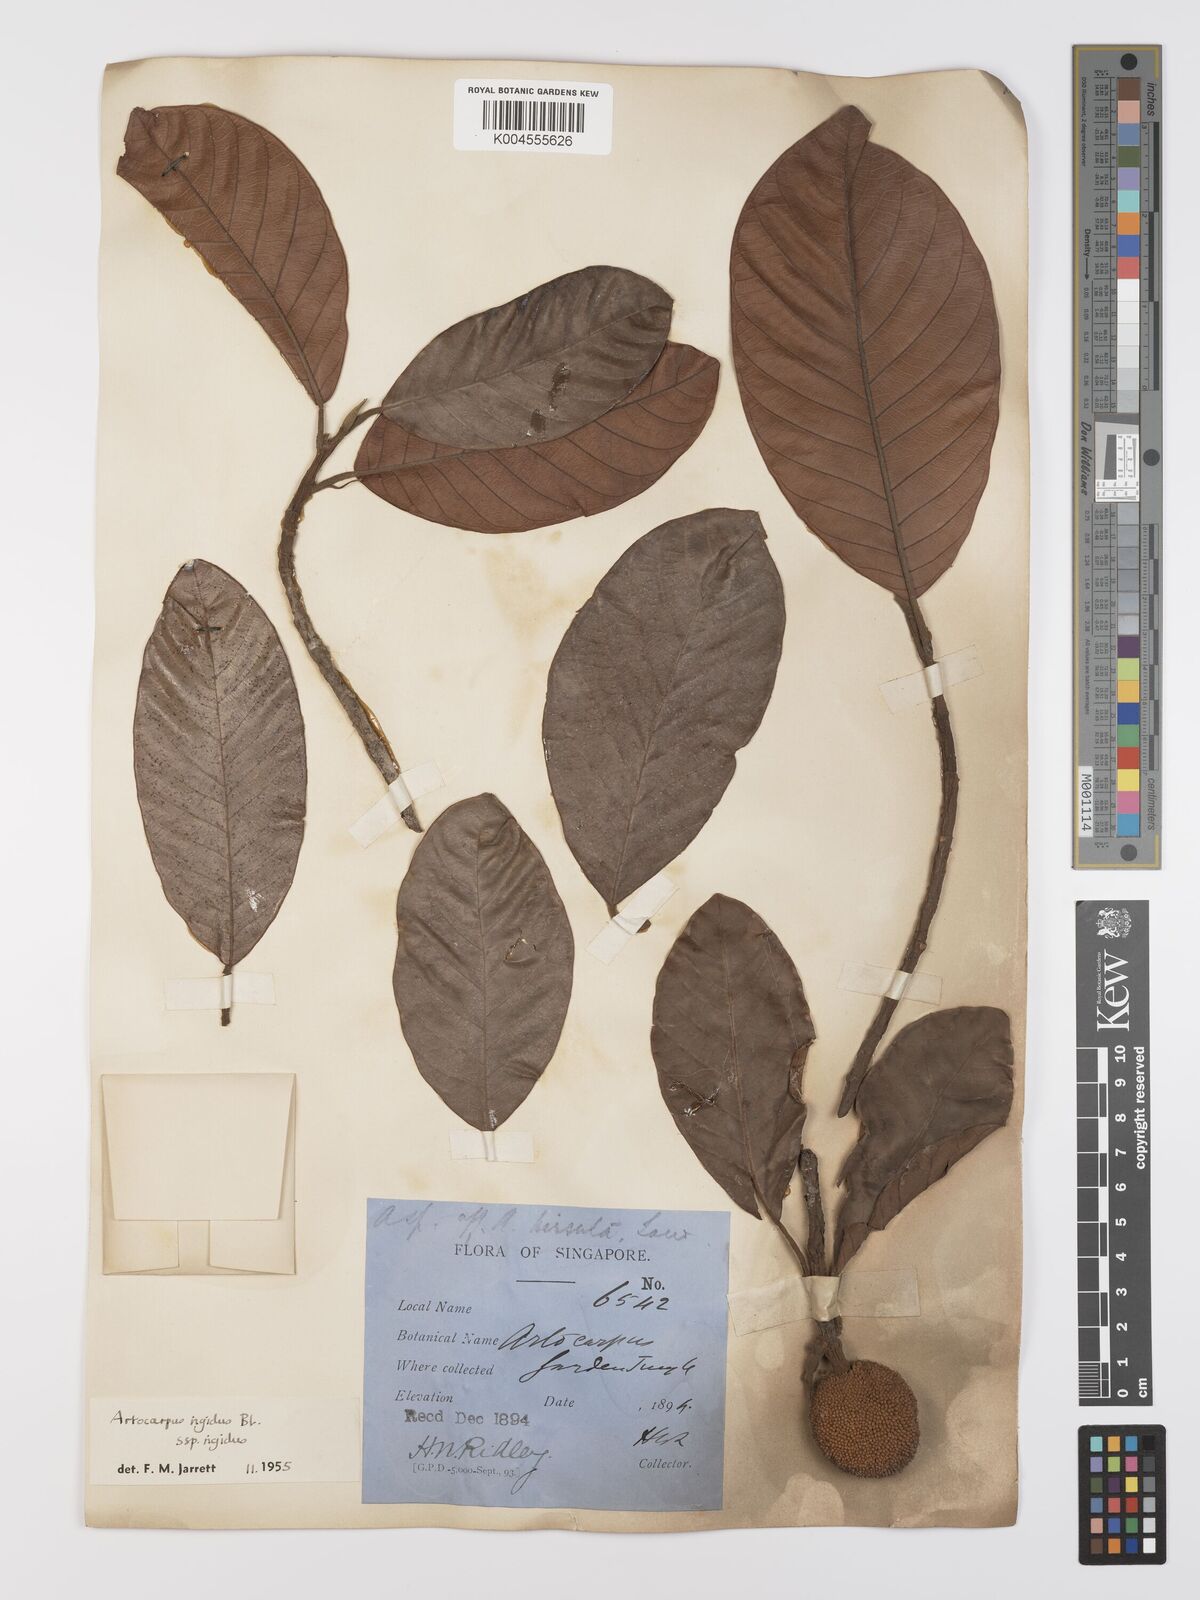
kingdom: Plantae
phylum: Tracheophyta
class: Magnoliopsida
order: Rosales
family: Moraceae
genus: Artocarpus
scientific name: Artocarpus
